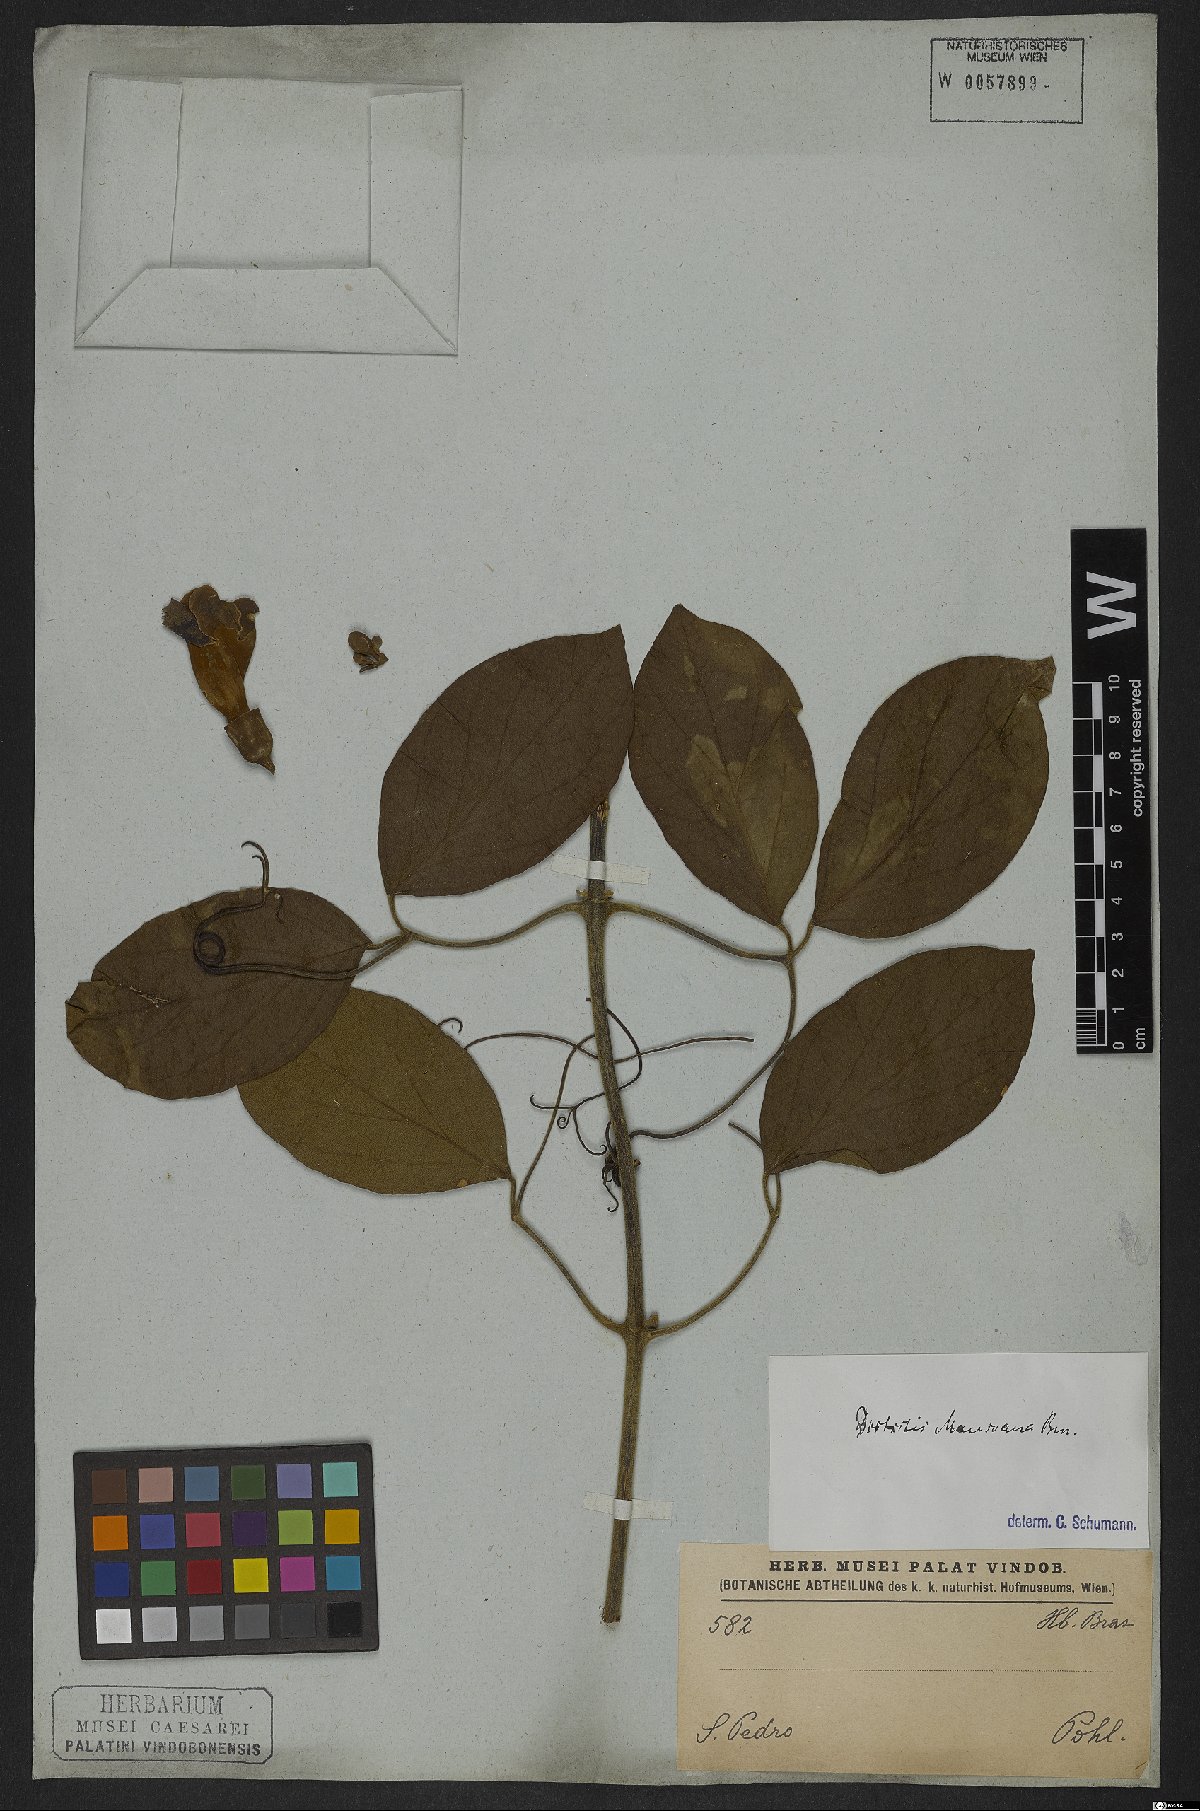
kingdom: Plantae
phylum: Tracheophyta
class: Magnoliopsida
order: Lamiales
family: Bignoniaceae
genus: Amphilophium
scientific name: Amphilophium mansoanum
